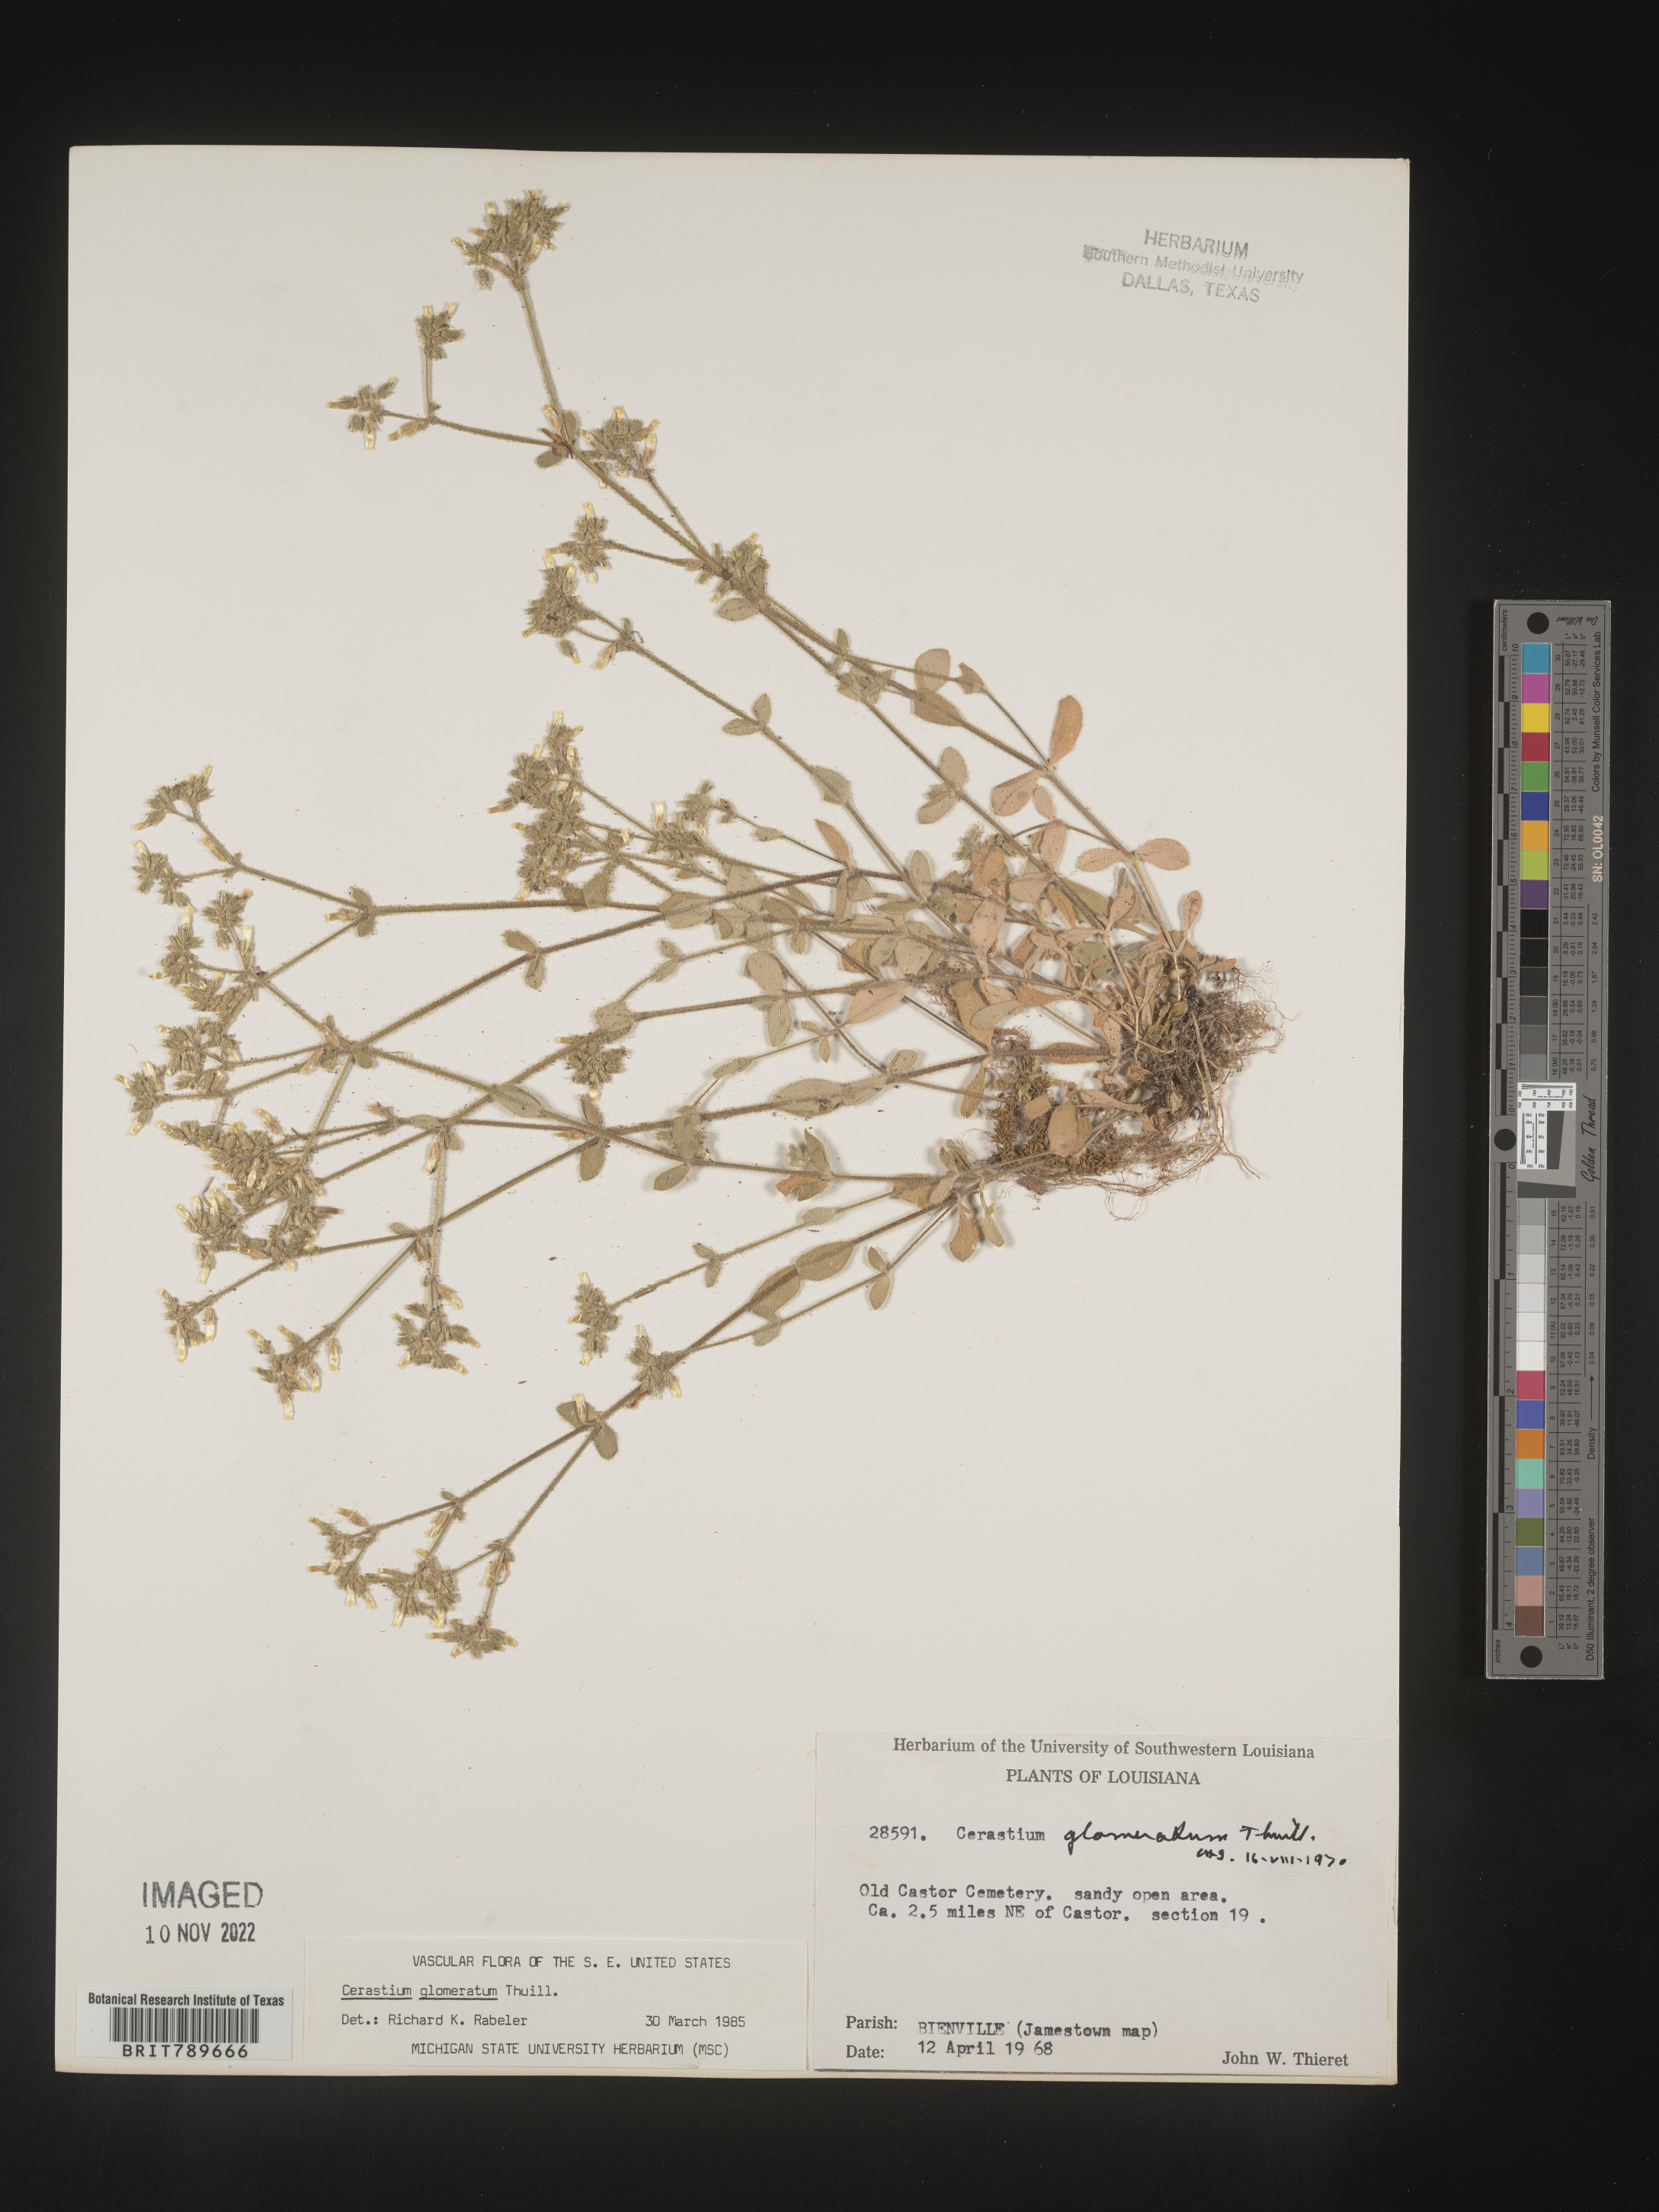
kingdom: Plantae
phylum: Tracheophyta
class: Magnoliopsida
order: Caryophyllales
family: Caryophyllaceae
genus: Cerastium
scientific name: Cerastium glomeratum
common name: Sticky chickweed
